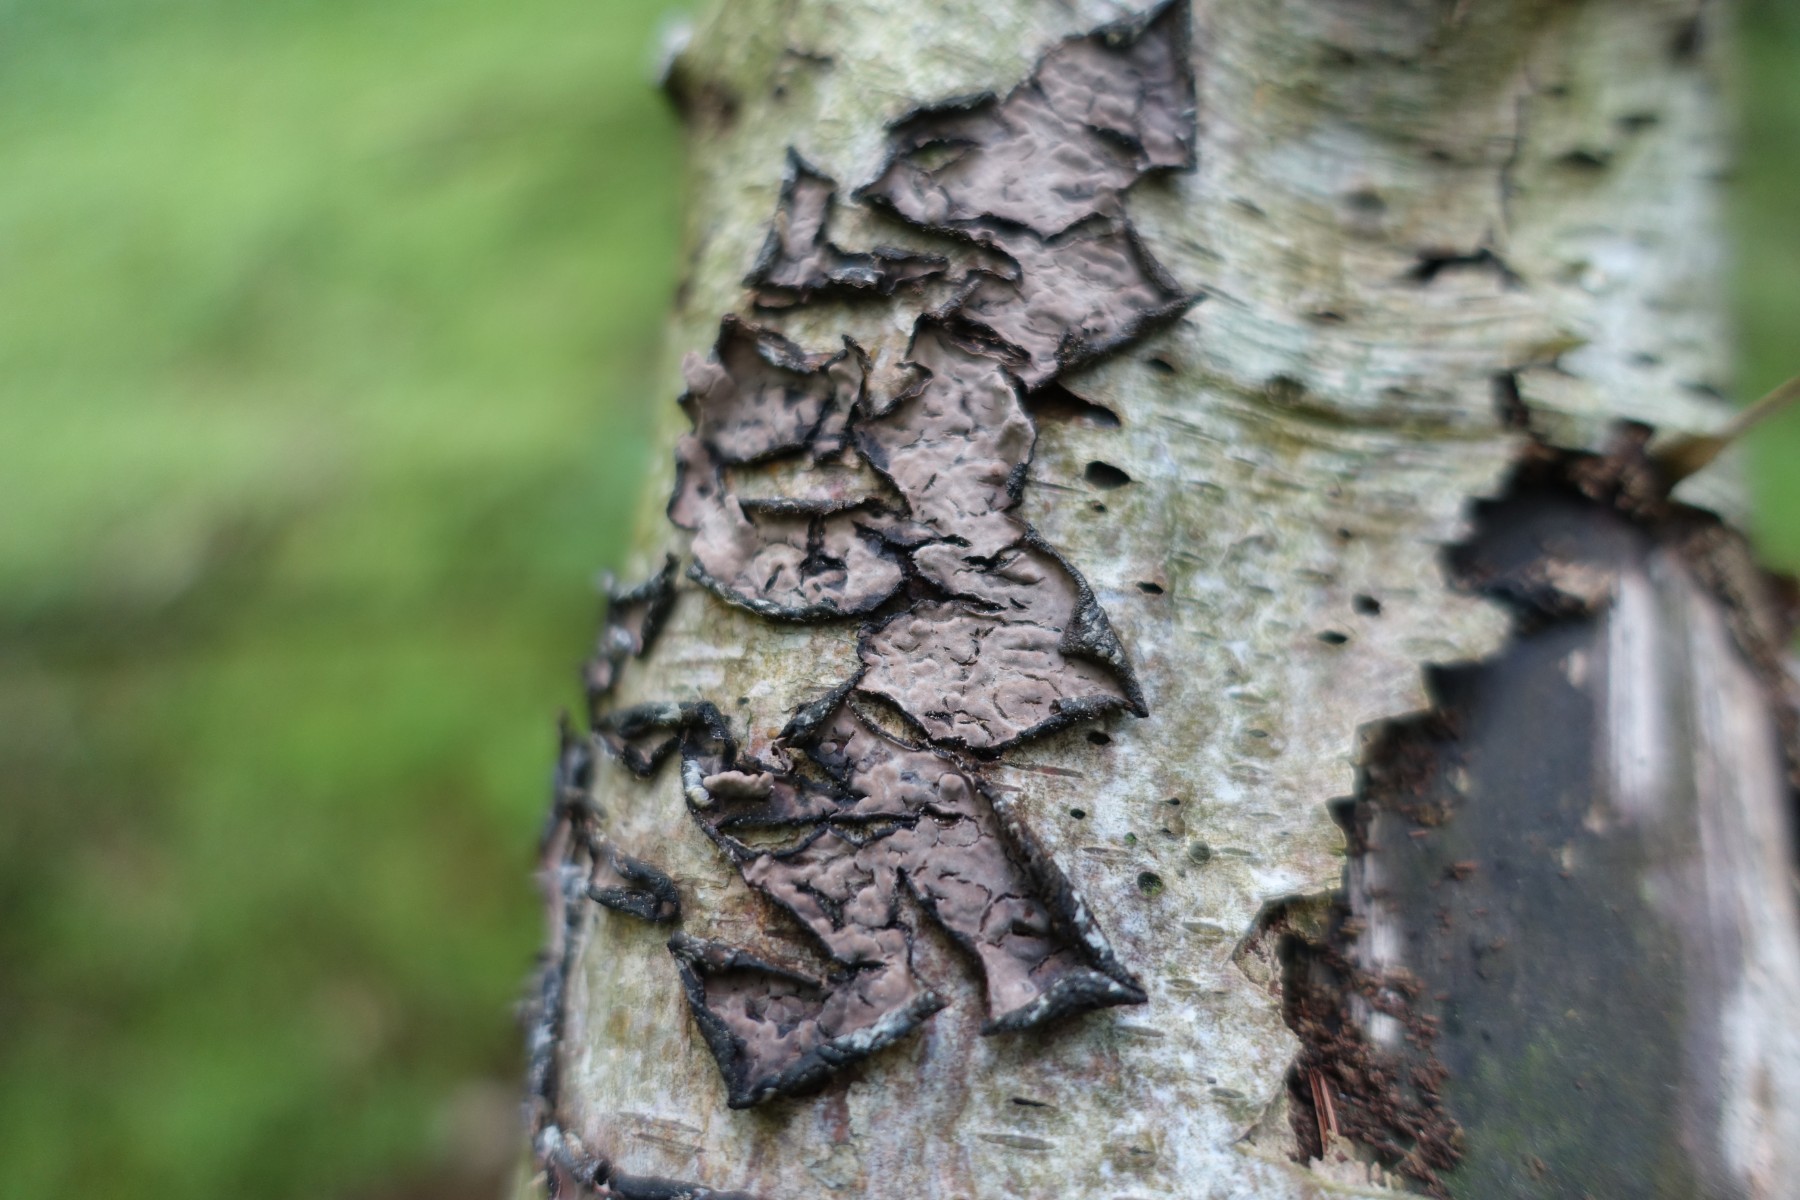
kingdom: Fungi
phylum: Basidiomycota
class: Agaricomycetes
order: Russulales
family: Peniophoraceae
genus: Peniophora
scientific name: Peniophora quercina
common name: ege-voksskind
